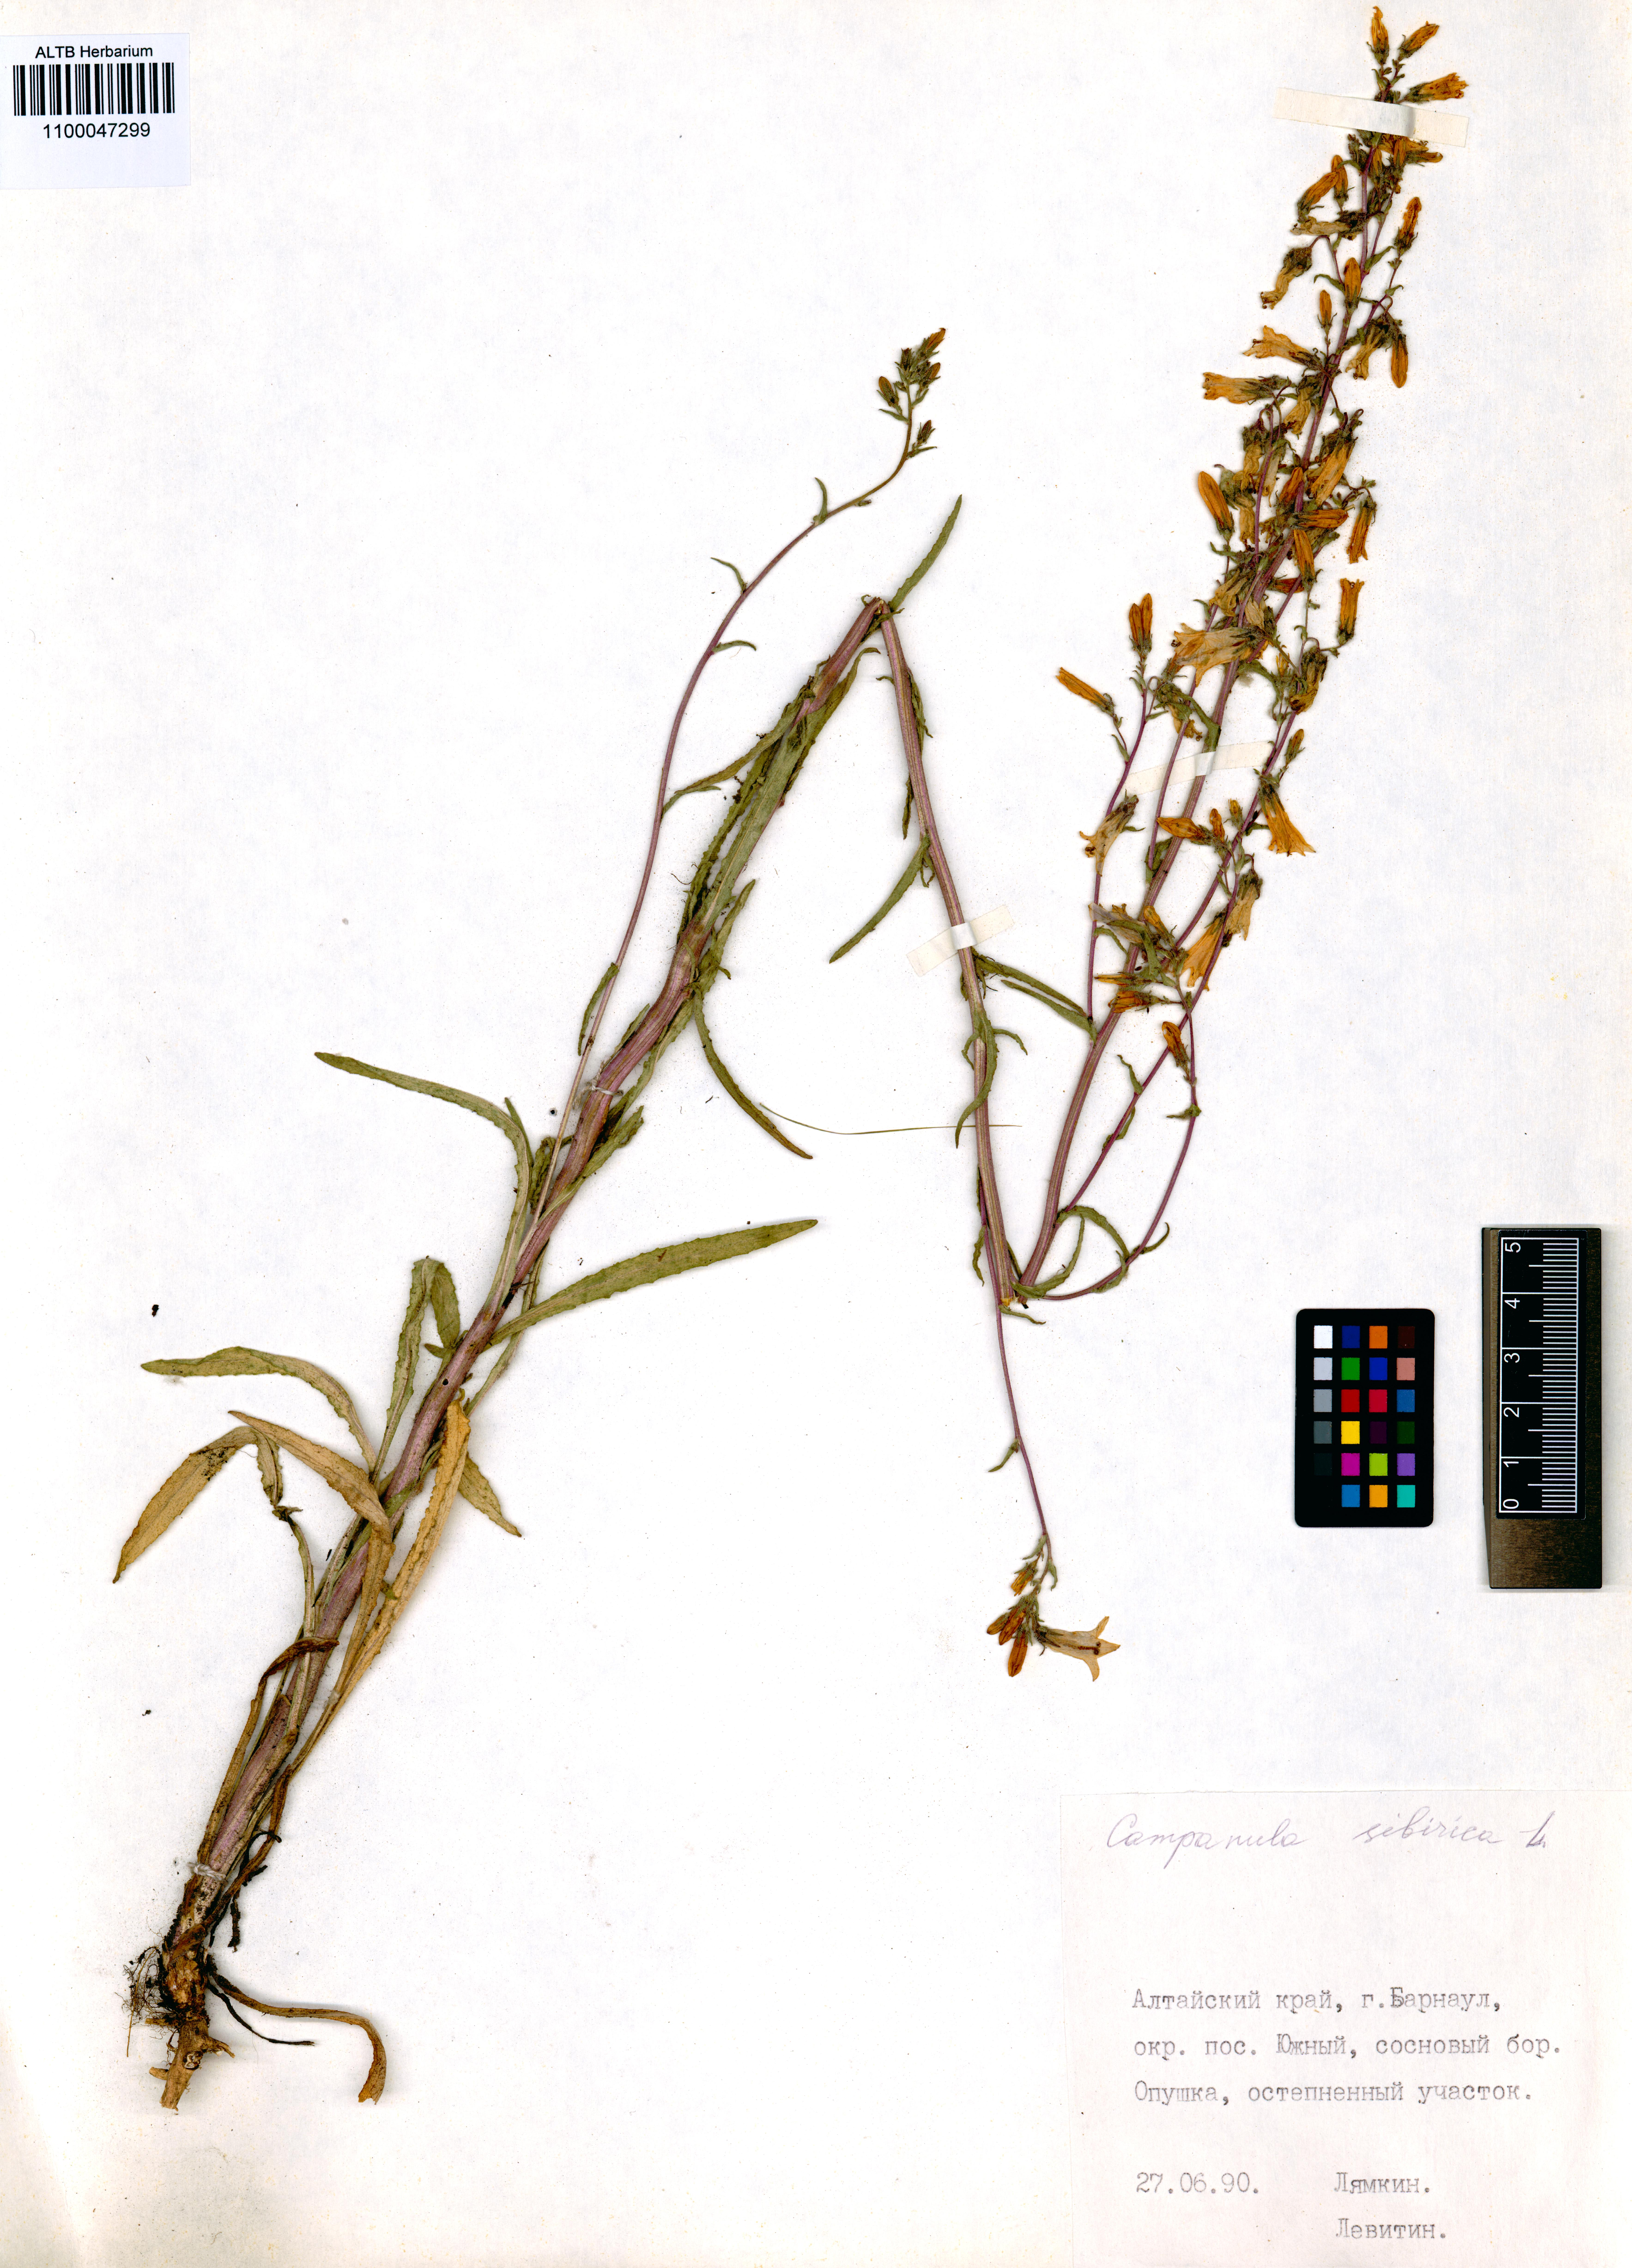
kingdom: Plantae
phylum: Tracheophyta
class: Magnoliopsida
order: Asterales
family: Campanulaceae
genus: Campanula
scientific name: Campanula sibirica
